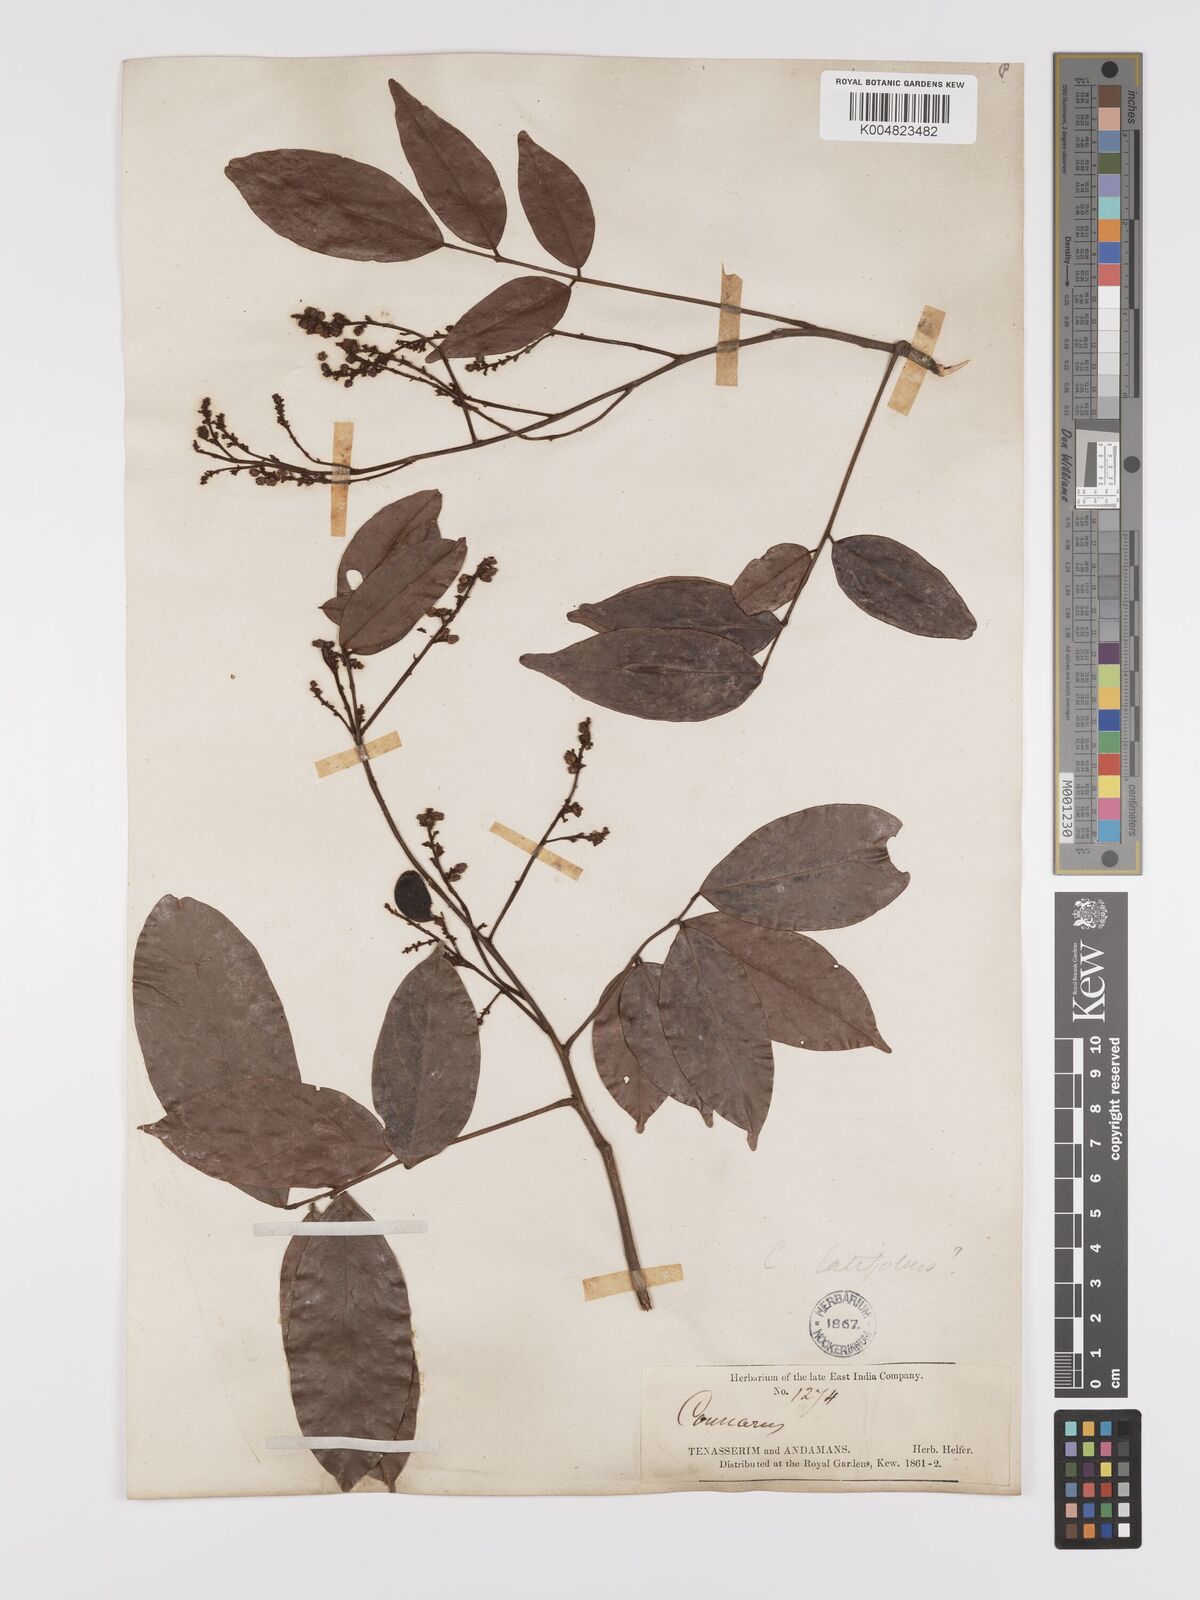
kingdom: Plantae
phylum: Tracheophyta
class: Magnoliopsida
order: Oxalidales
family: Connaraceae
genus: Connarus
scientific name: Connarus semidecandrus
